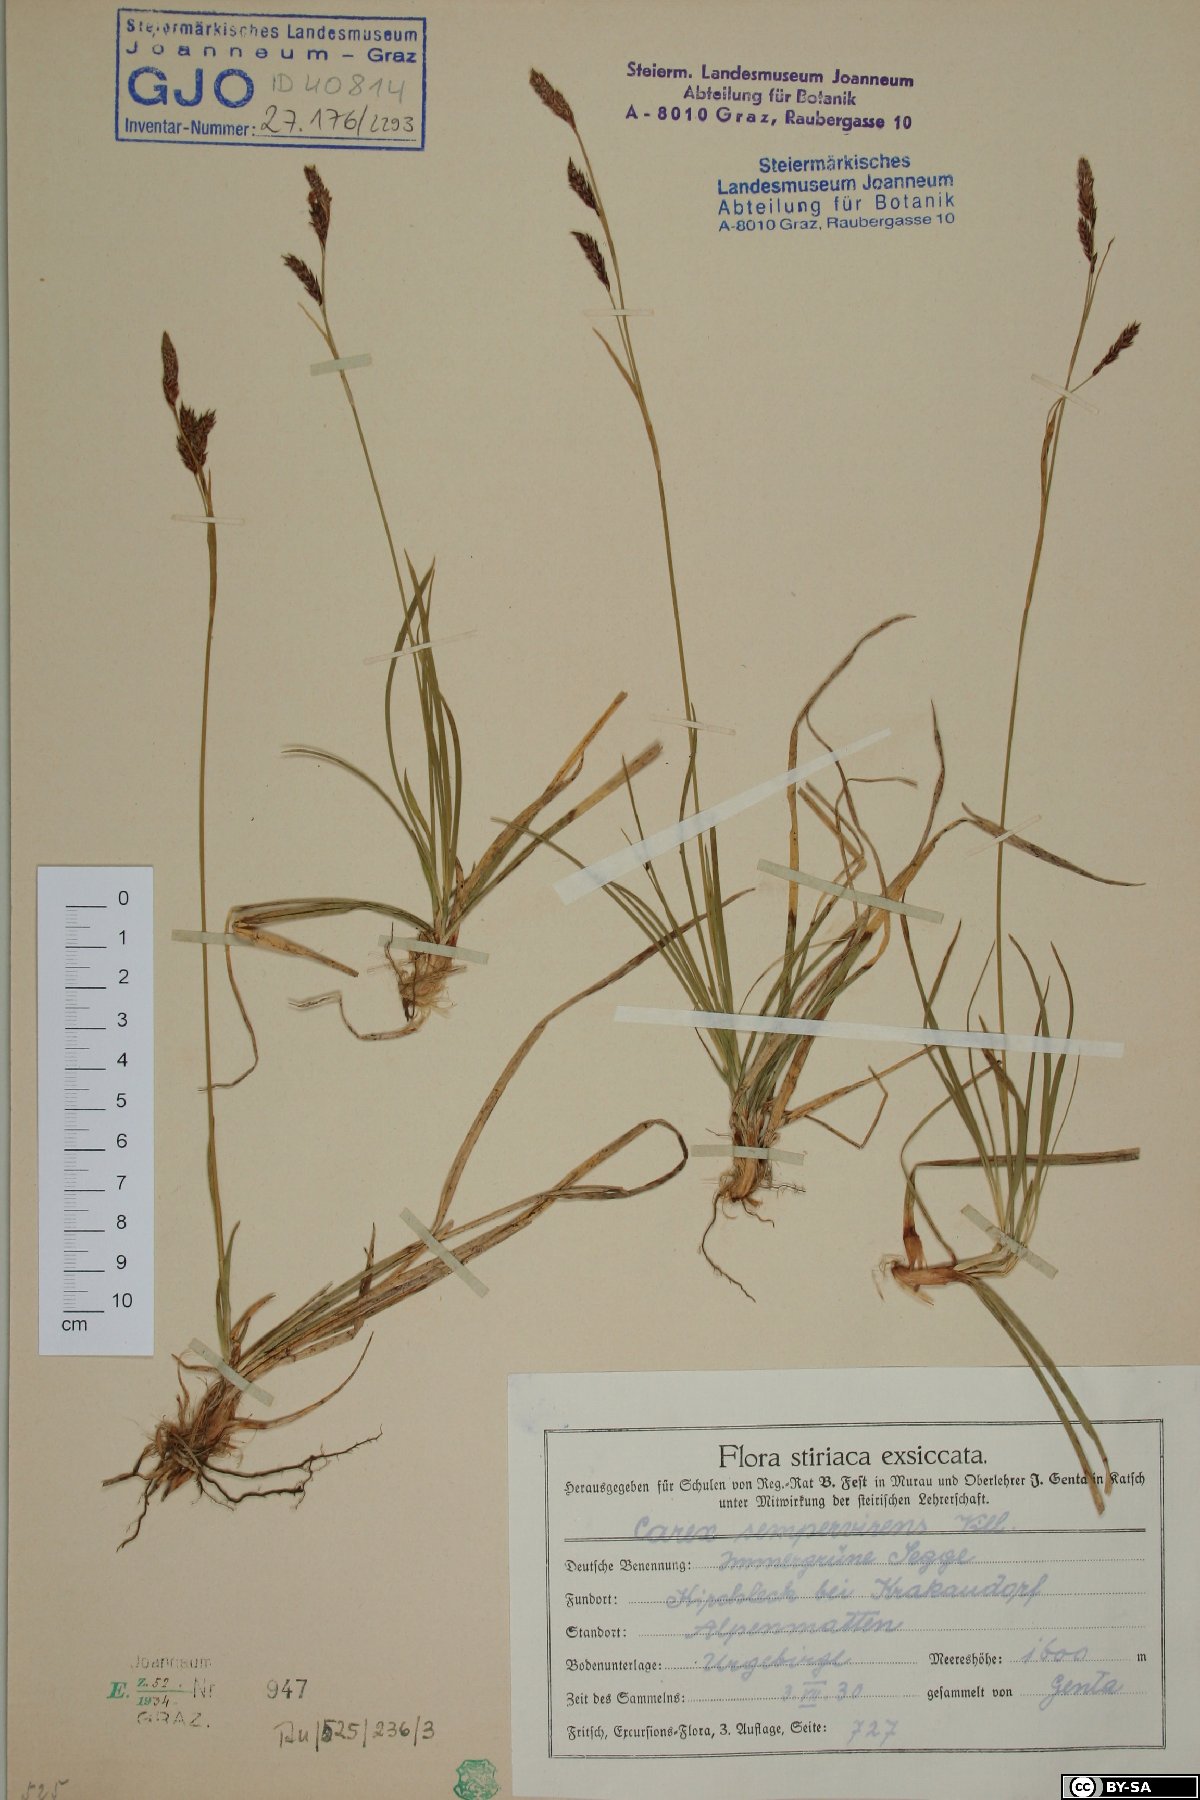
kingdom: Plantae
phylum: Tracheophyta
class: Liliopsida
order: Poales
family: Cyperaceae
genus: Carex
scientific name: Carex sempervirens
